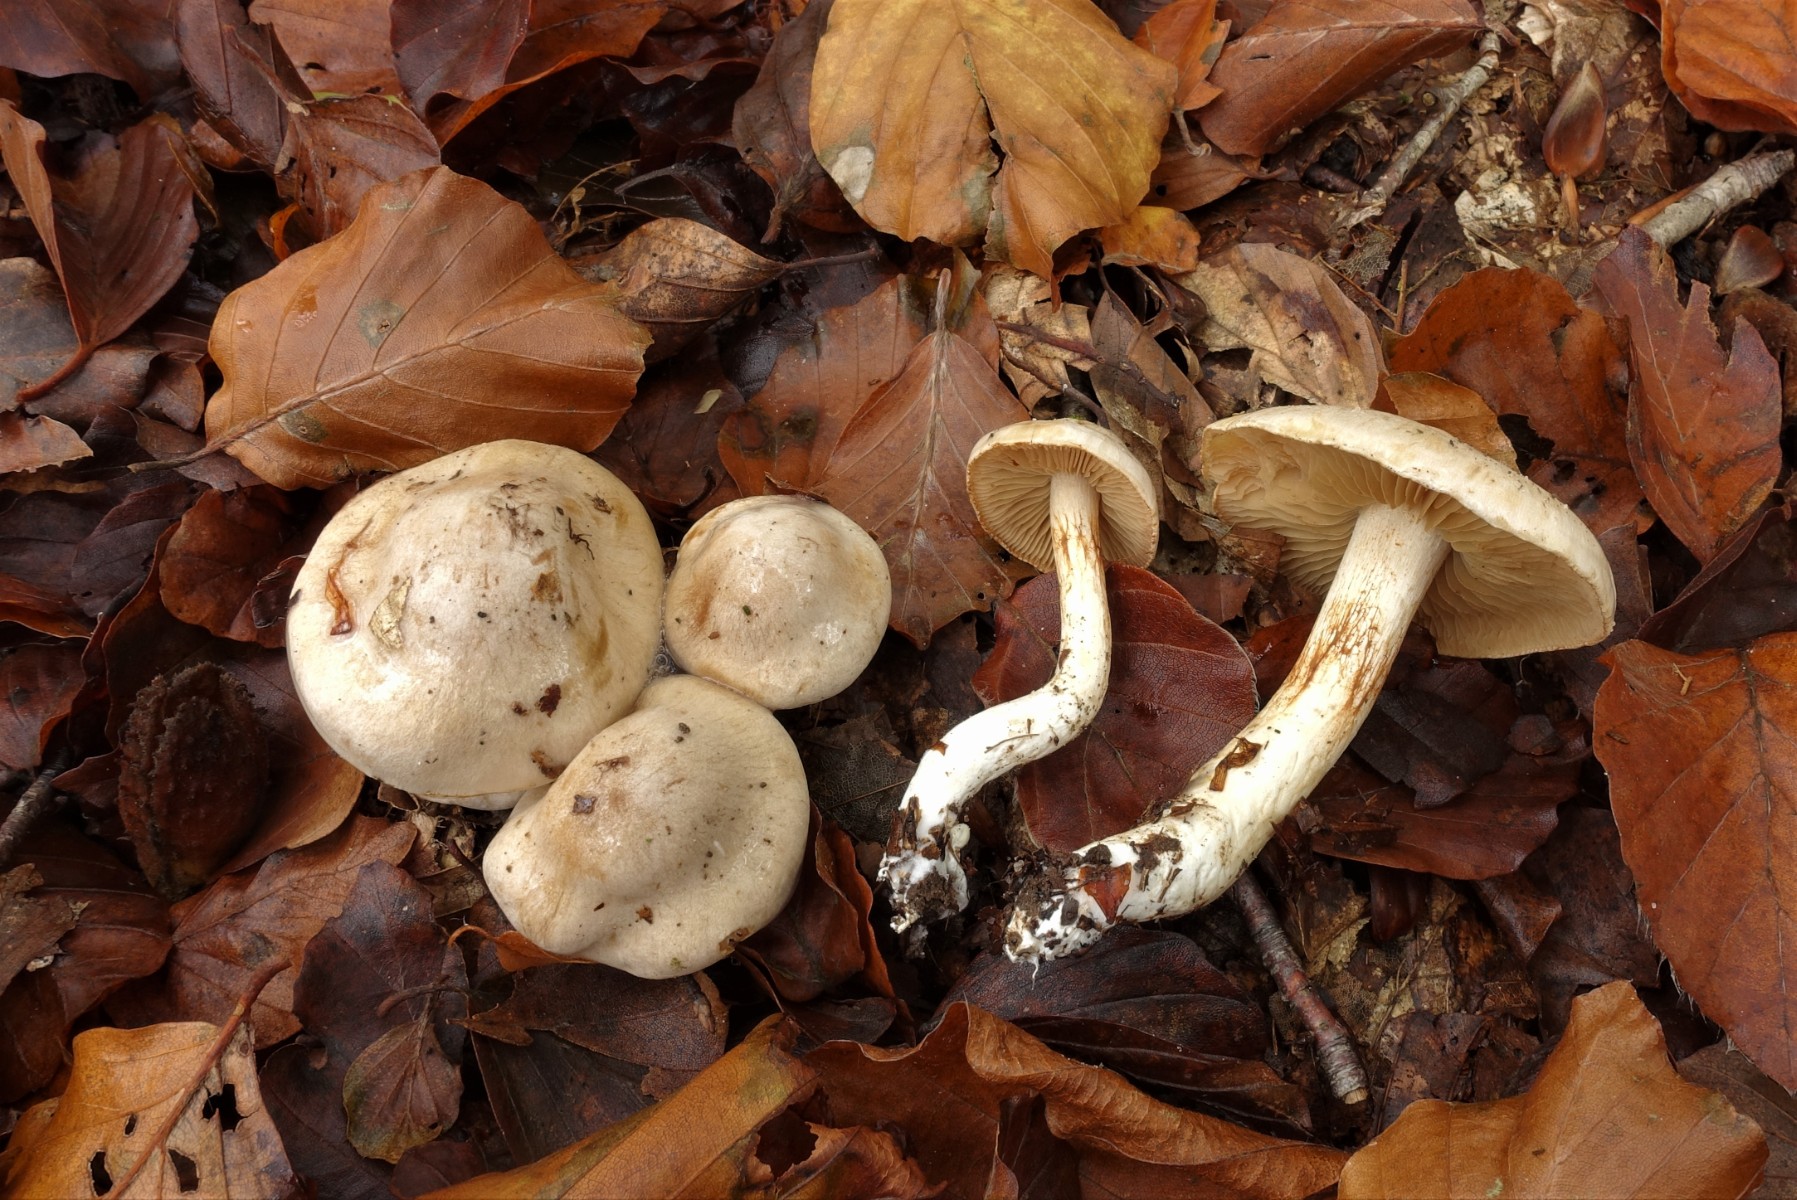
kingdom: Fungi
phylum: Basidiomycota
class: Agaricomycetes
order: Agaricales
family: Cortinariaceae
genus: Thaxterogaster
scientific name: Thaxterogaster barbatus
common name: elfenbens-slørhat
